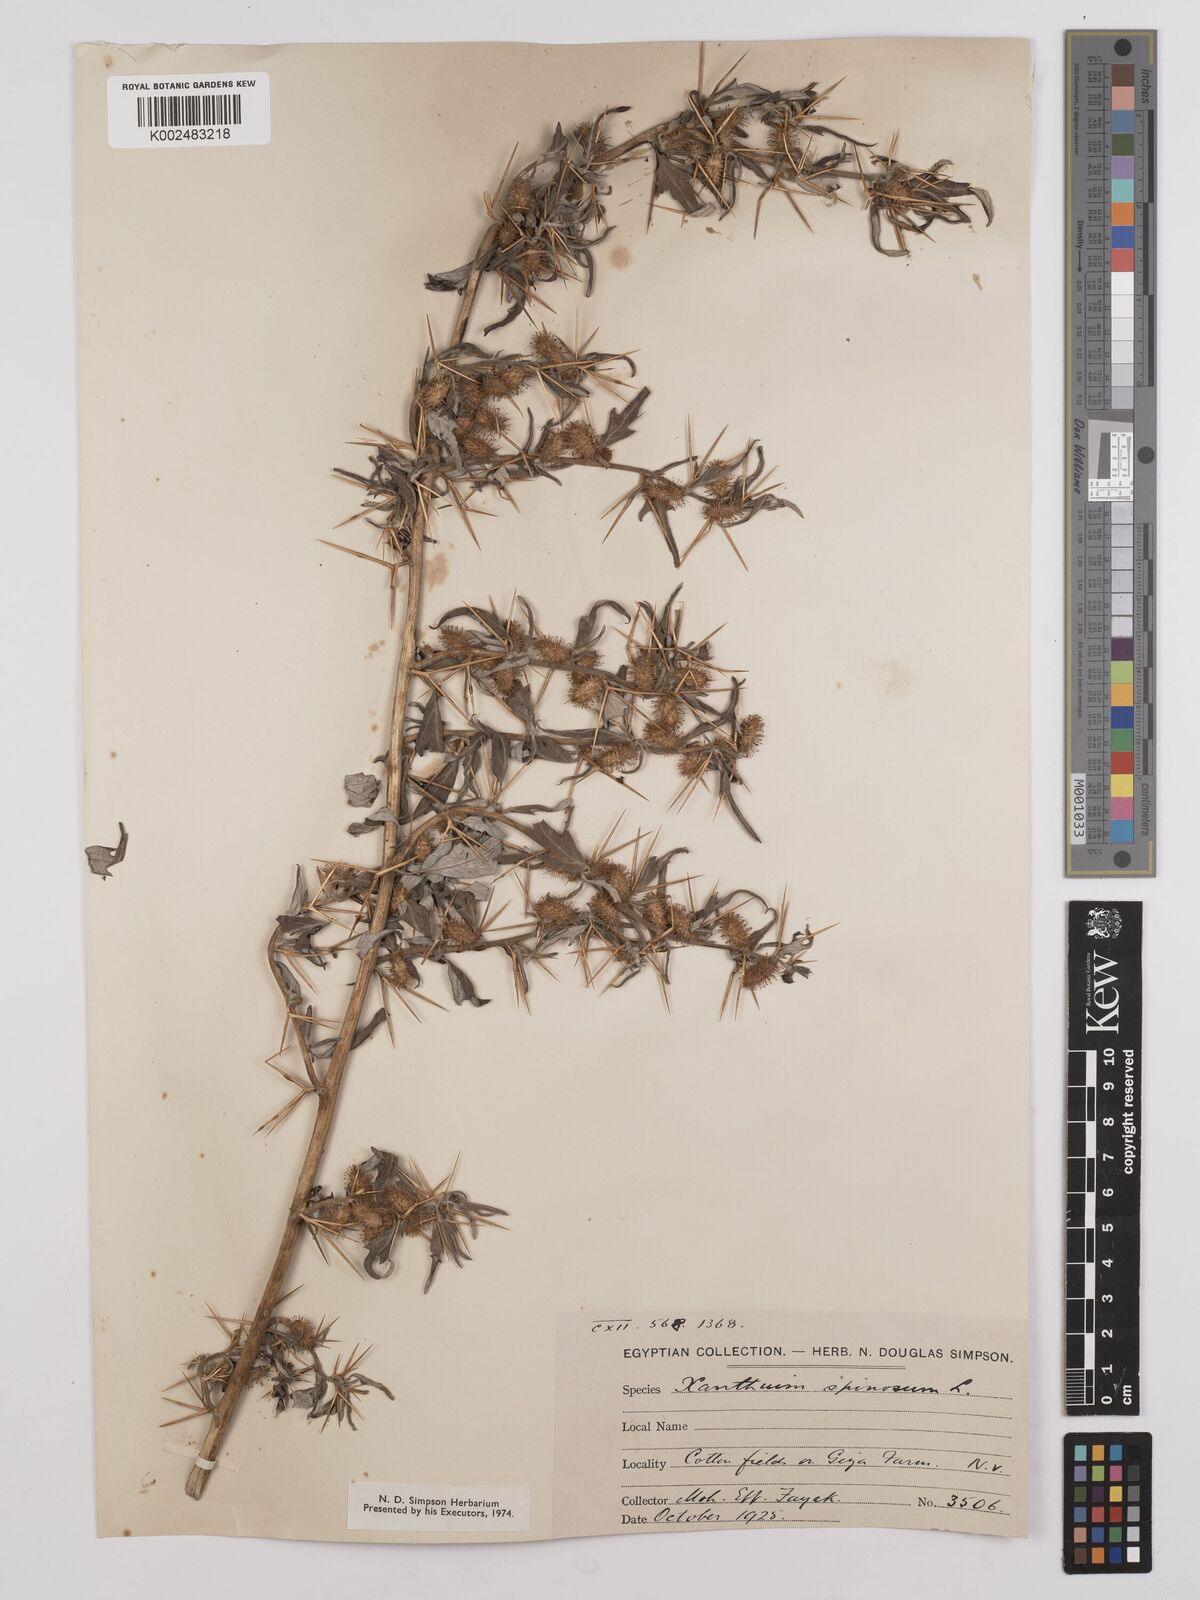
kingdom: Plantae
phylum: Tracheophyta
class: Magnoliopsida
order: Asterales
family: Asteraceae
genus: Xanthium
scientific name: Xanthium spinosum
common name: Spiny cocklebur
